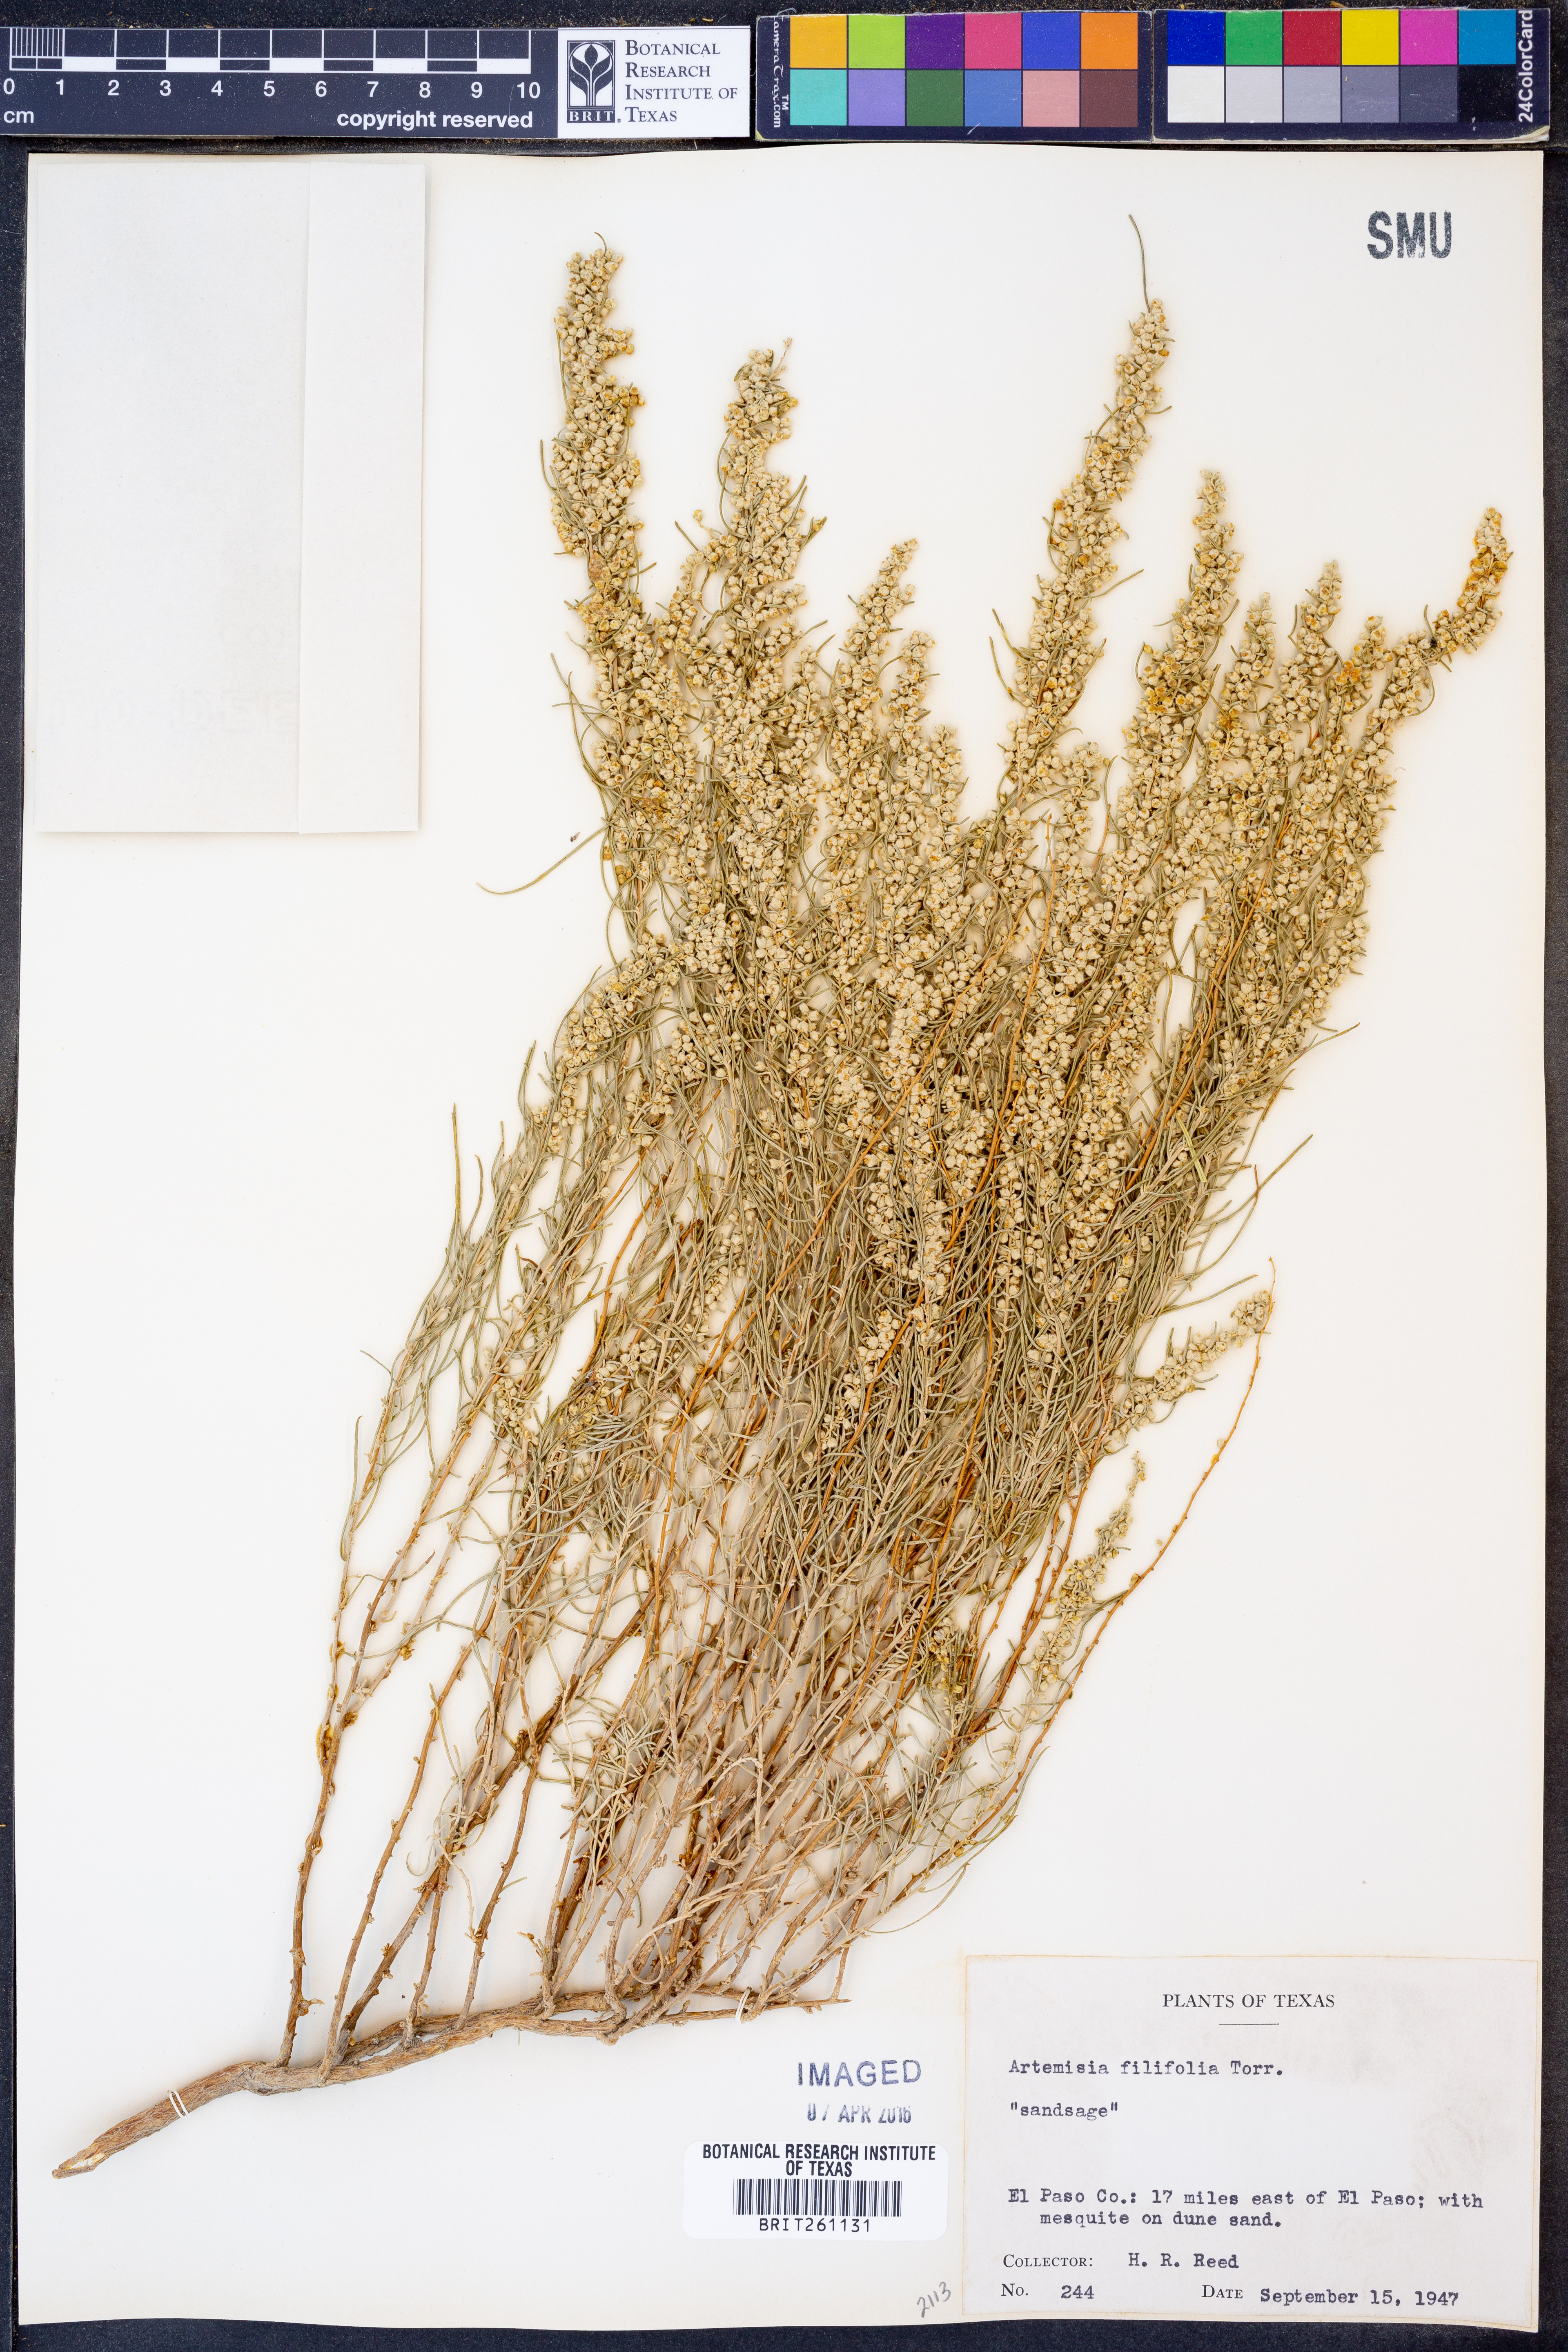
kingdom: Plantae
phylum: Tracheophyta
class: Magnoliopsida
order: Asterales
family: Asteraceae
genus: Artemisia
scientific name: Artemisia filifolia
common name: Sand-sage
